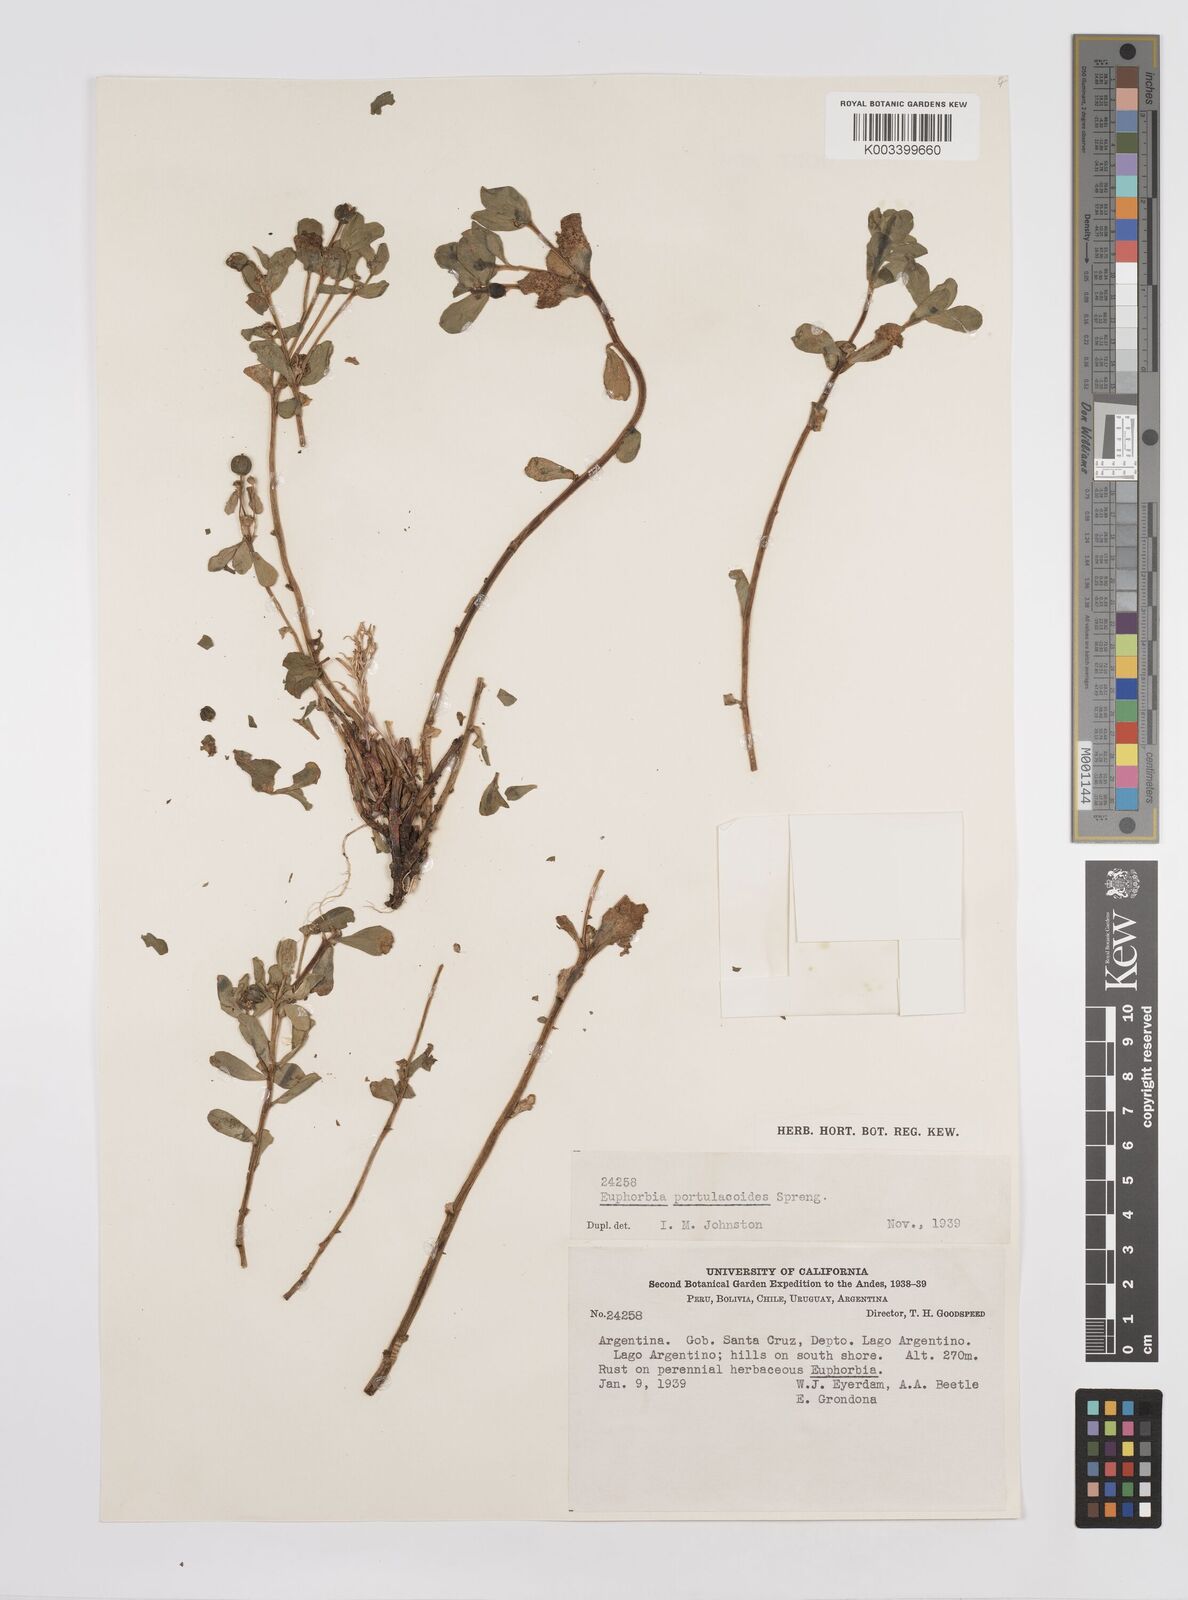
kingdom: Plantae
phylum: Tracheophyta
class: Magnoliopsida
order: Malpighiales
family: Euphorbiaceae
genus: Euphorbia
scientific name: Euphorbia portulacoides
